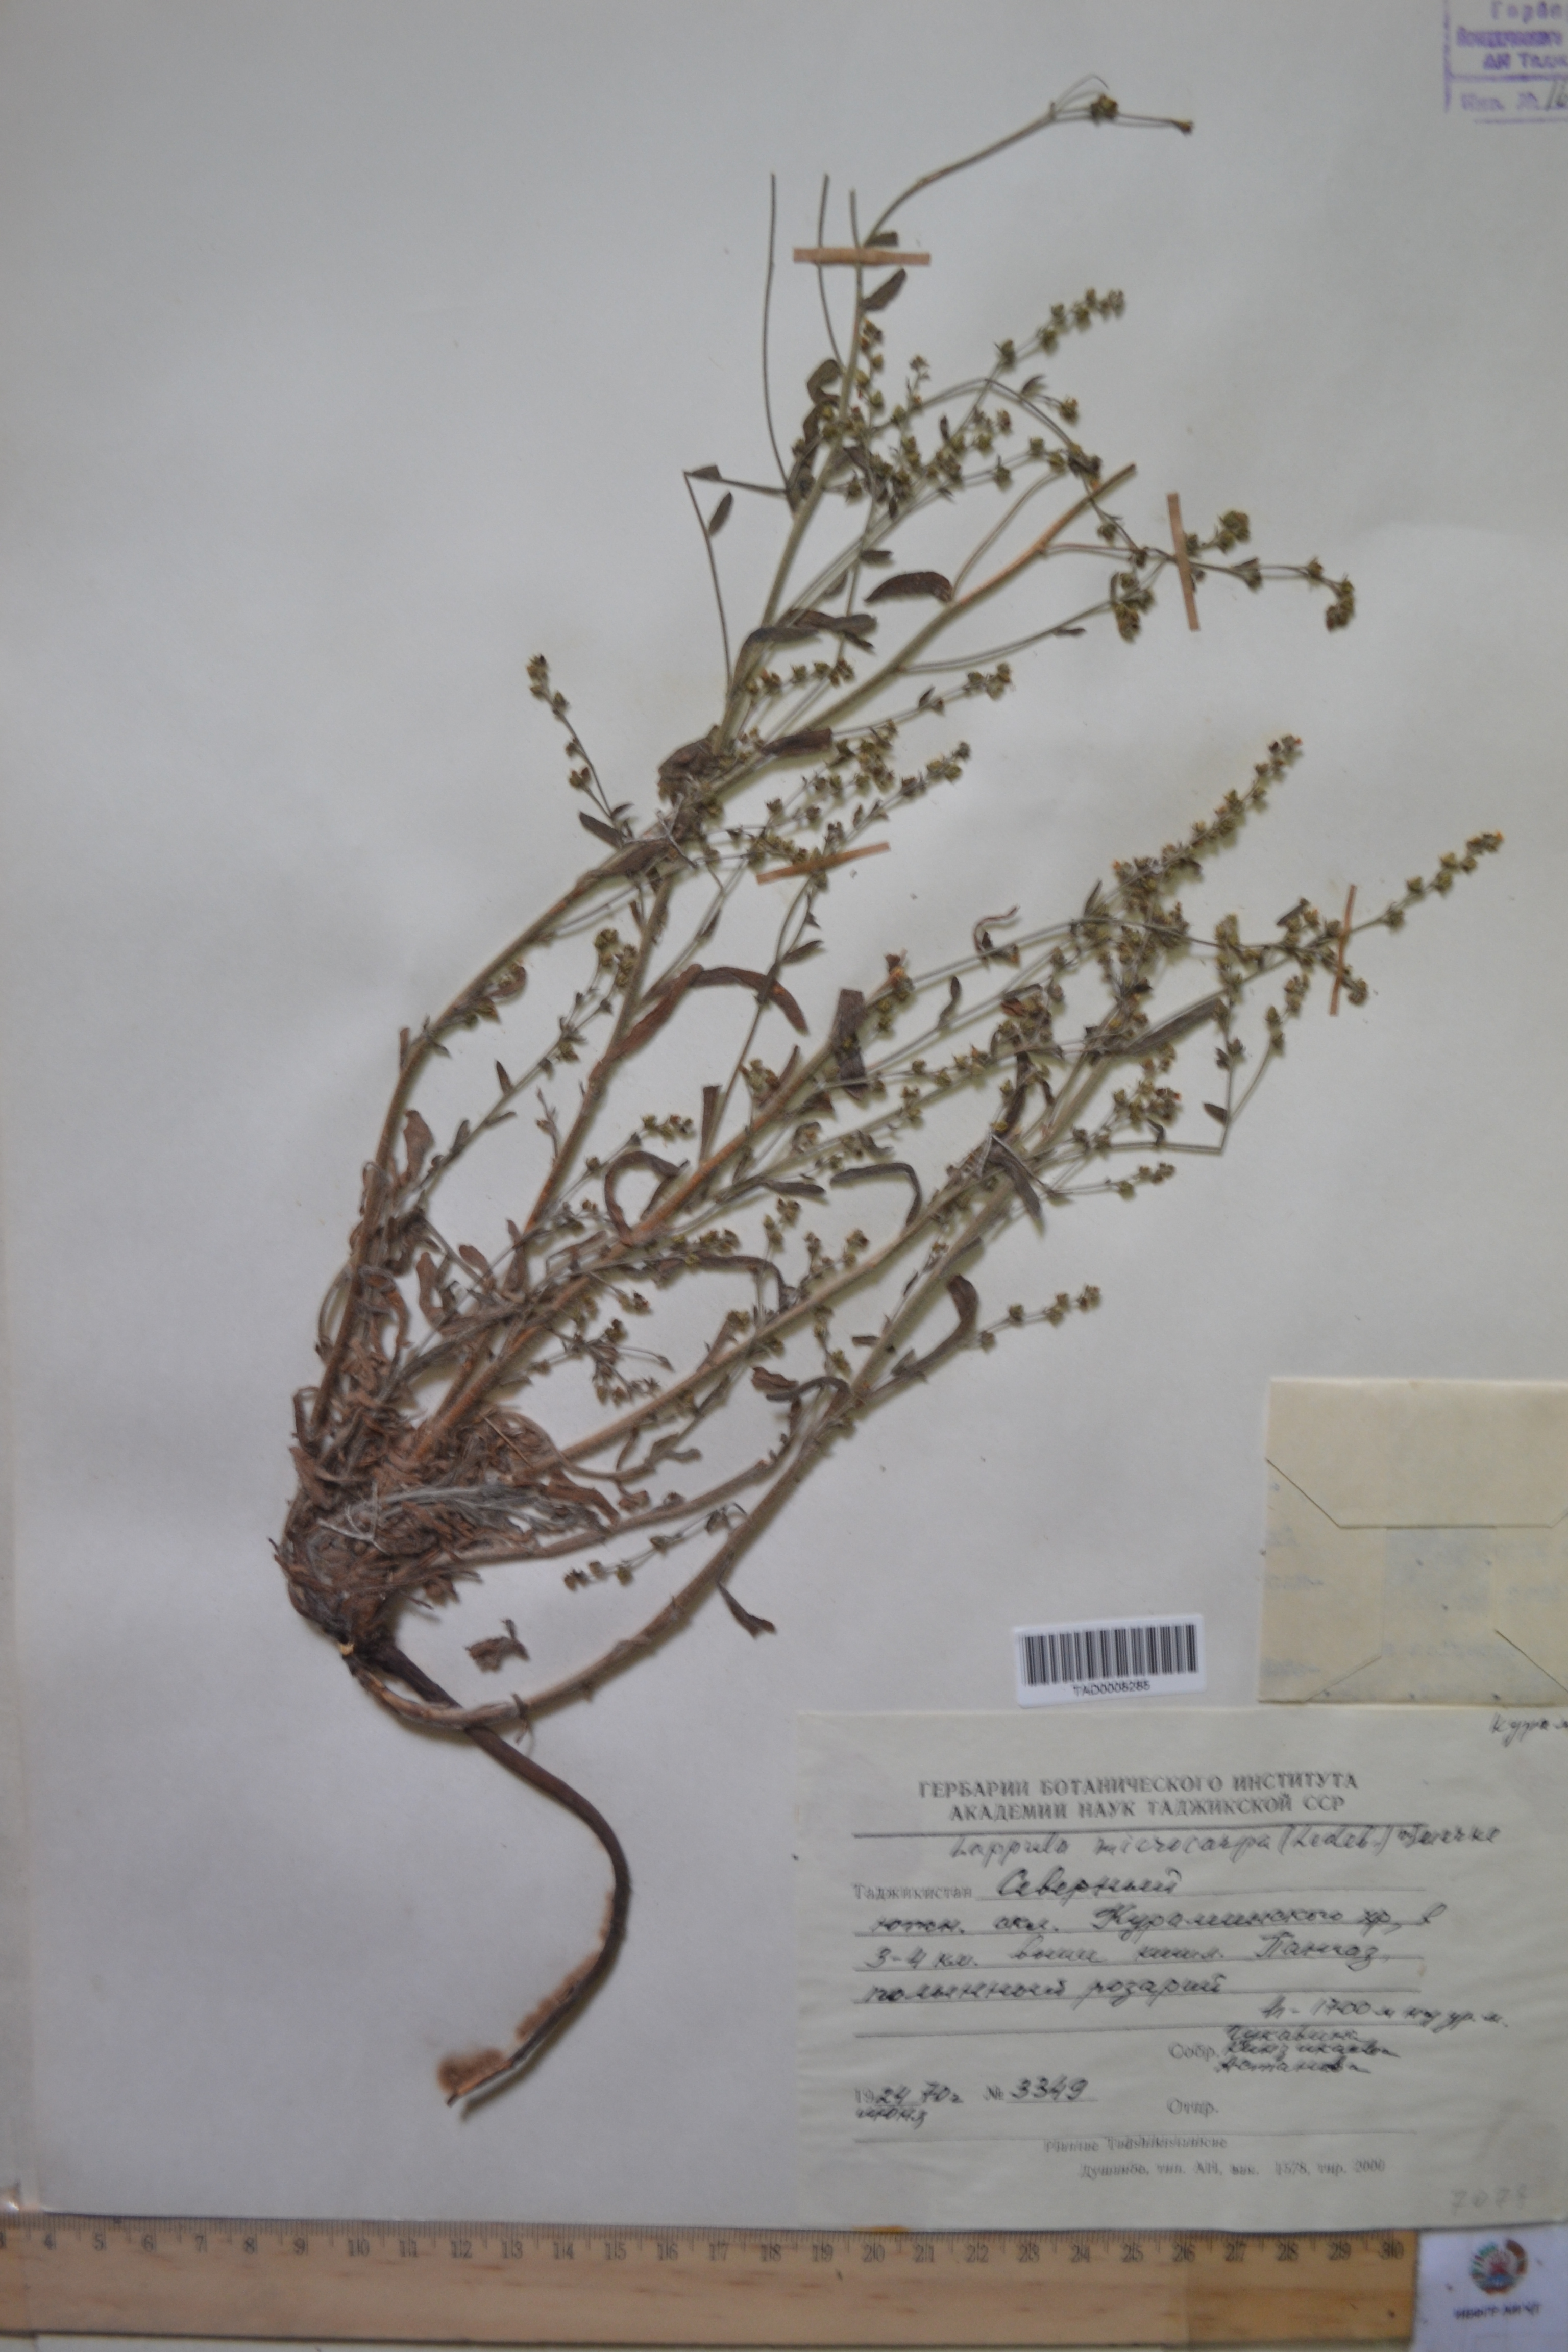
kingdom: Plantae
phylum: Tracheophyta
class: Magnoliopsida
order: Boraginales
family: Boraginaceae
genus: Lappula
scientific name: Lappula microcarpa
